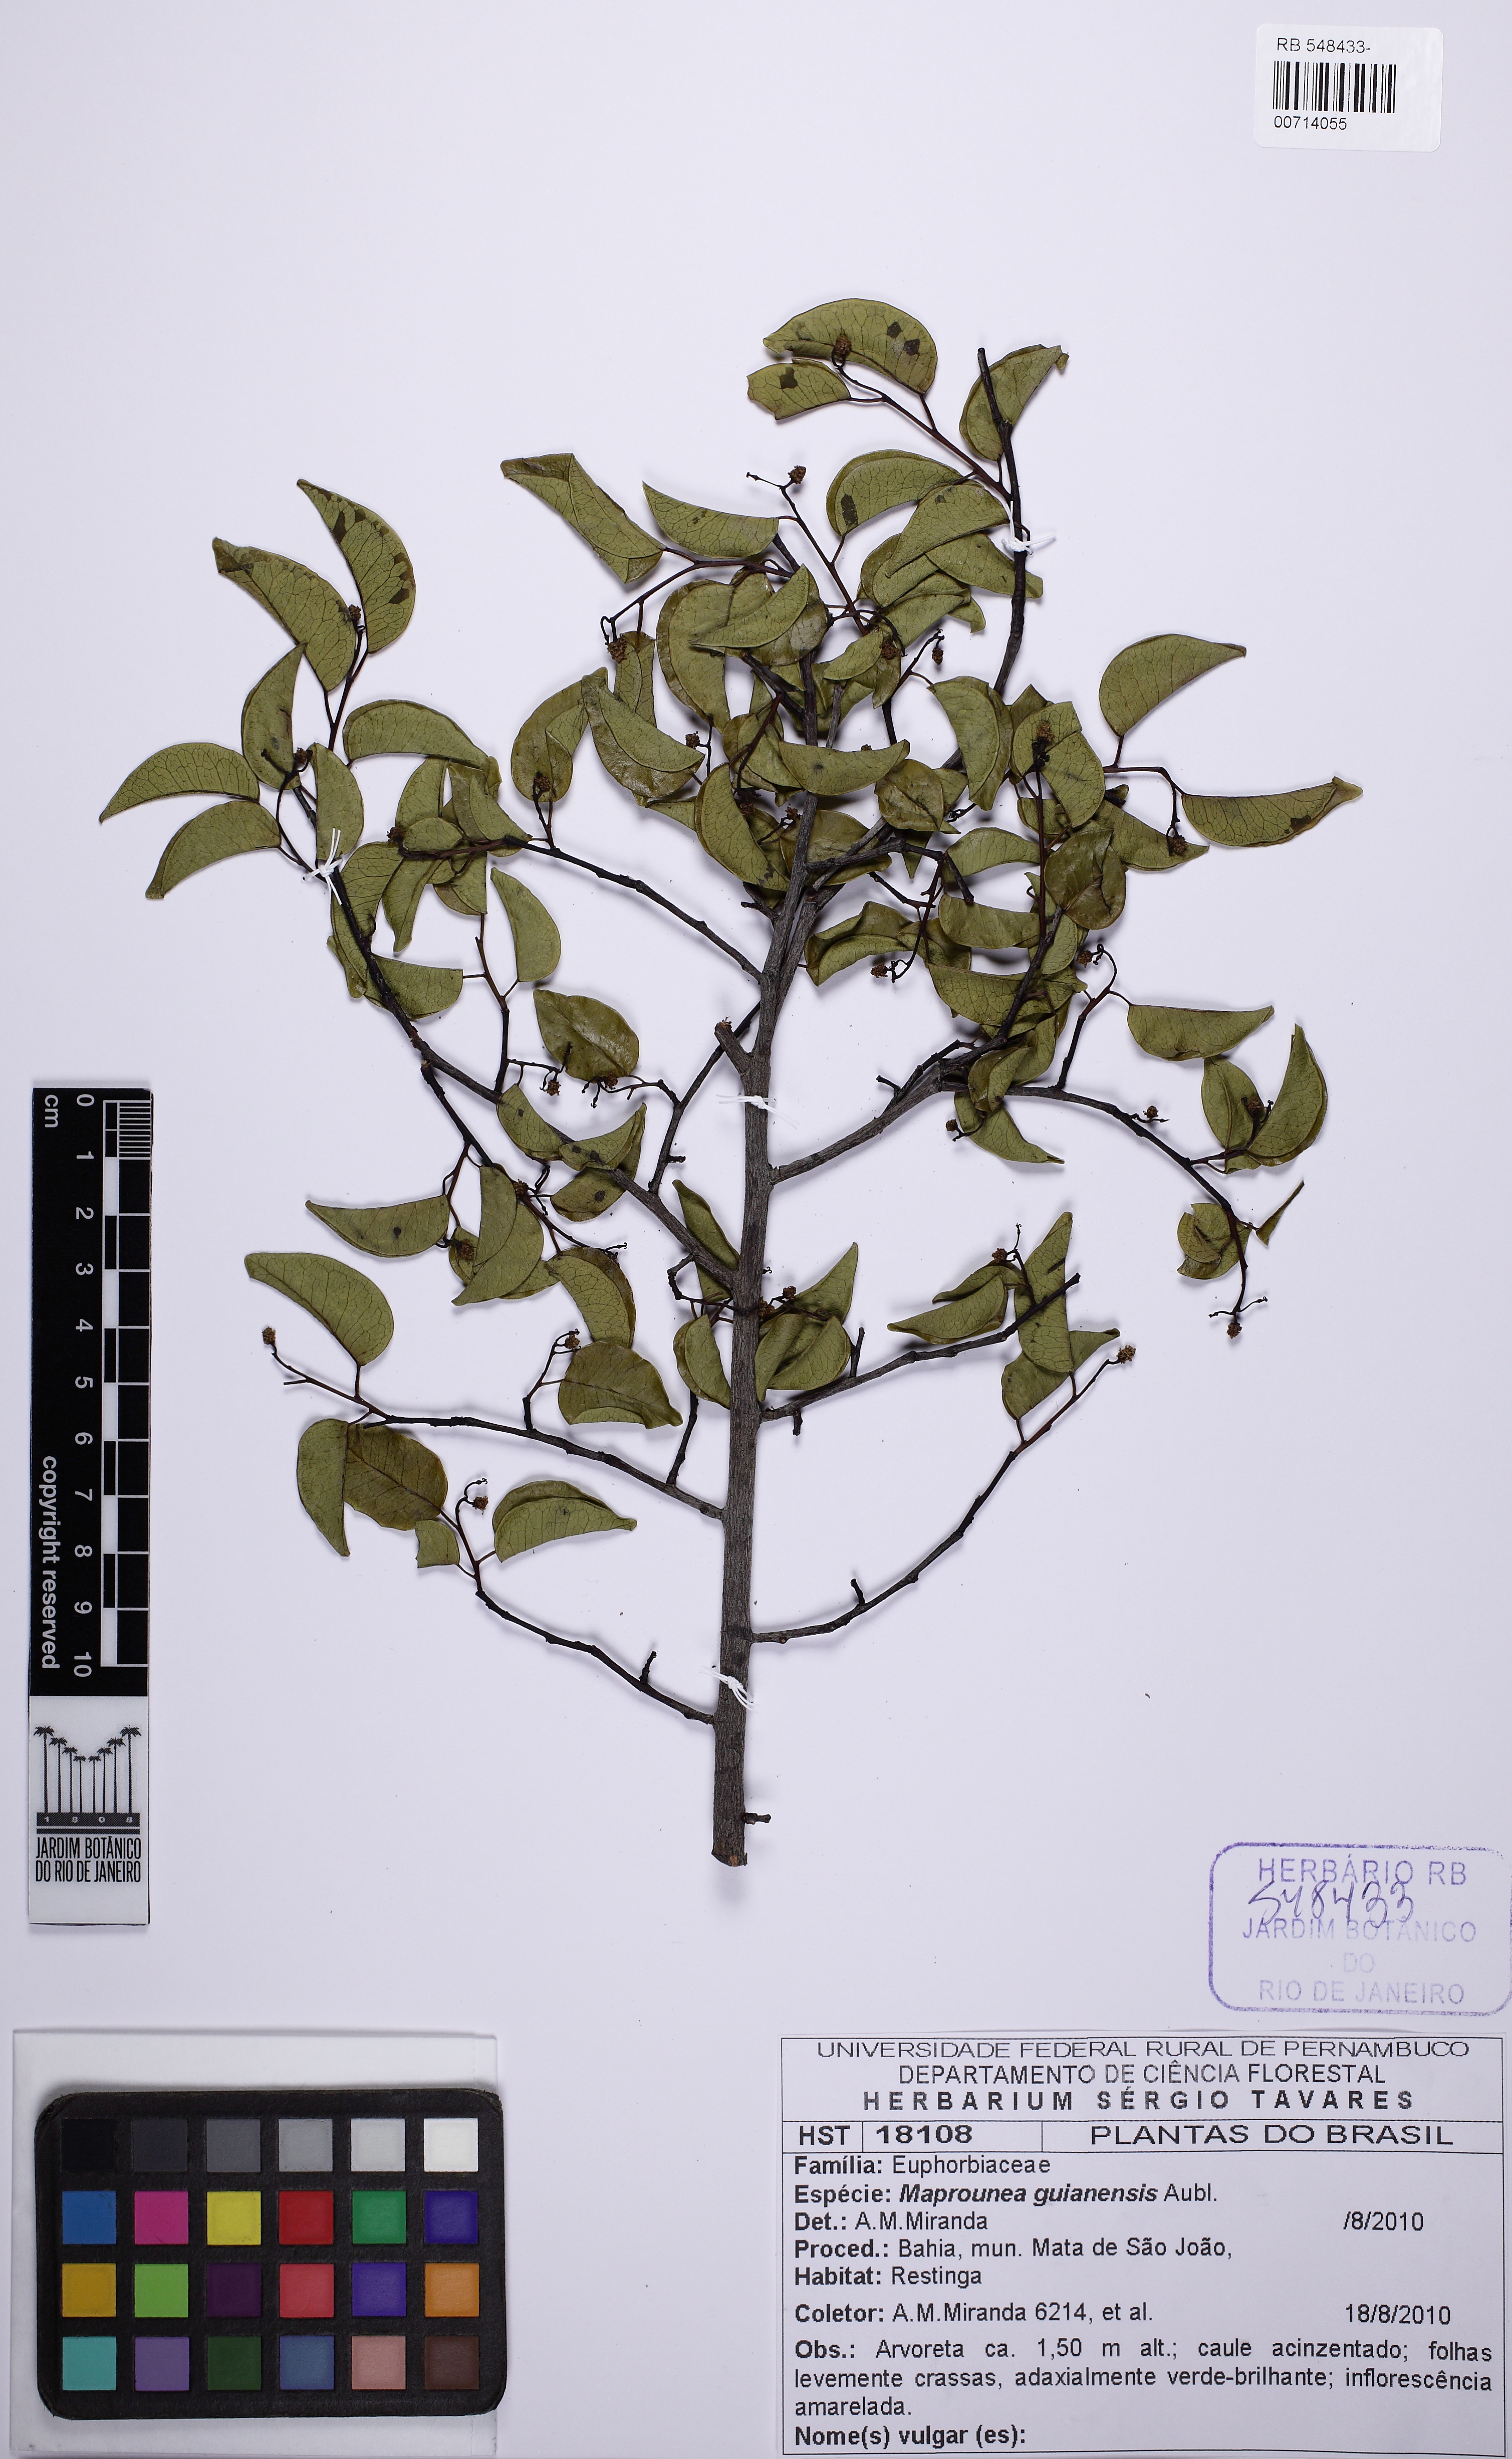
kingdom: Plantae
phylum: Tracheophyta
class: Magnoliopsida
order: Malpighiales
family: Euphorbiaceae
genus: Maprounea
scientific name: Maprounea guianensis
